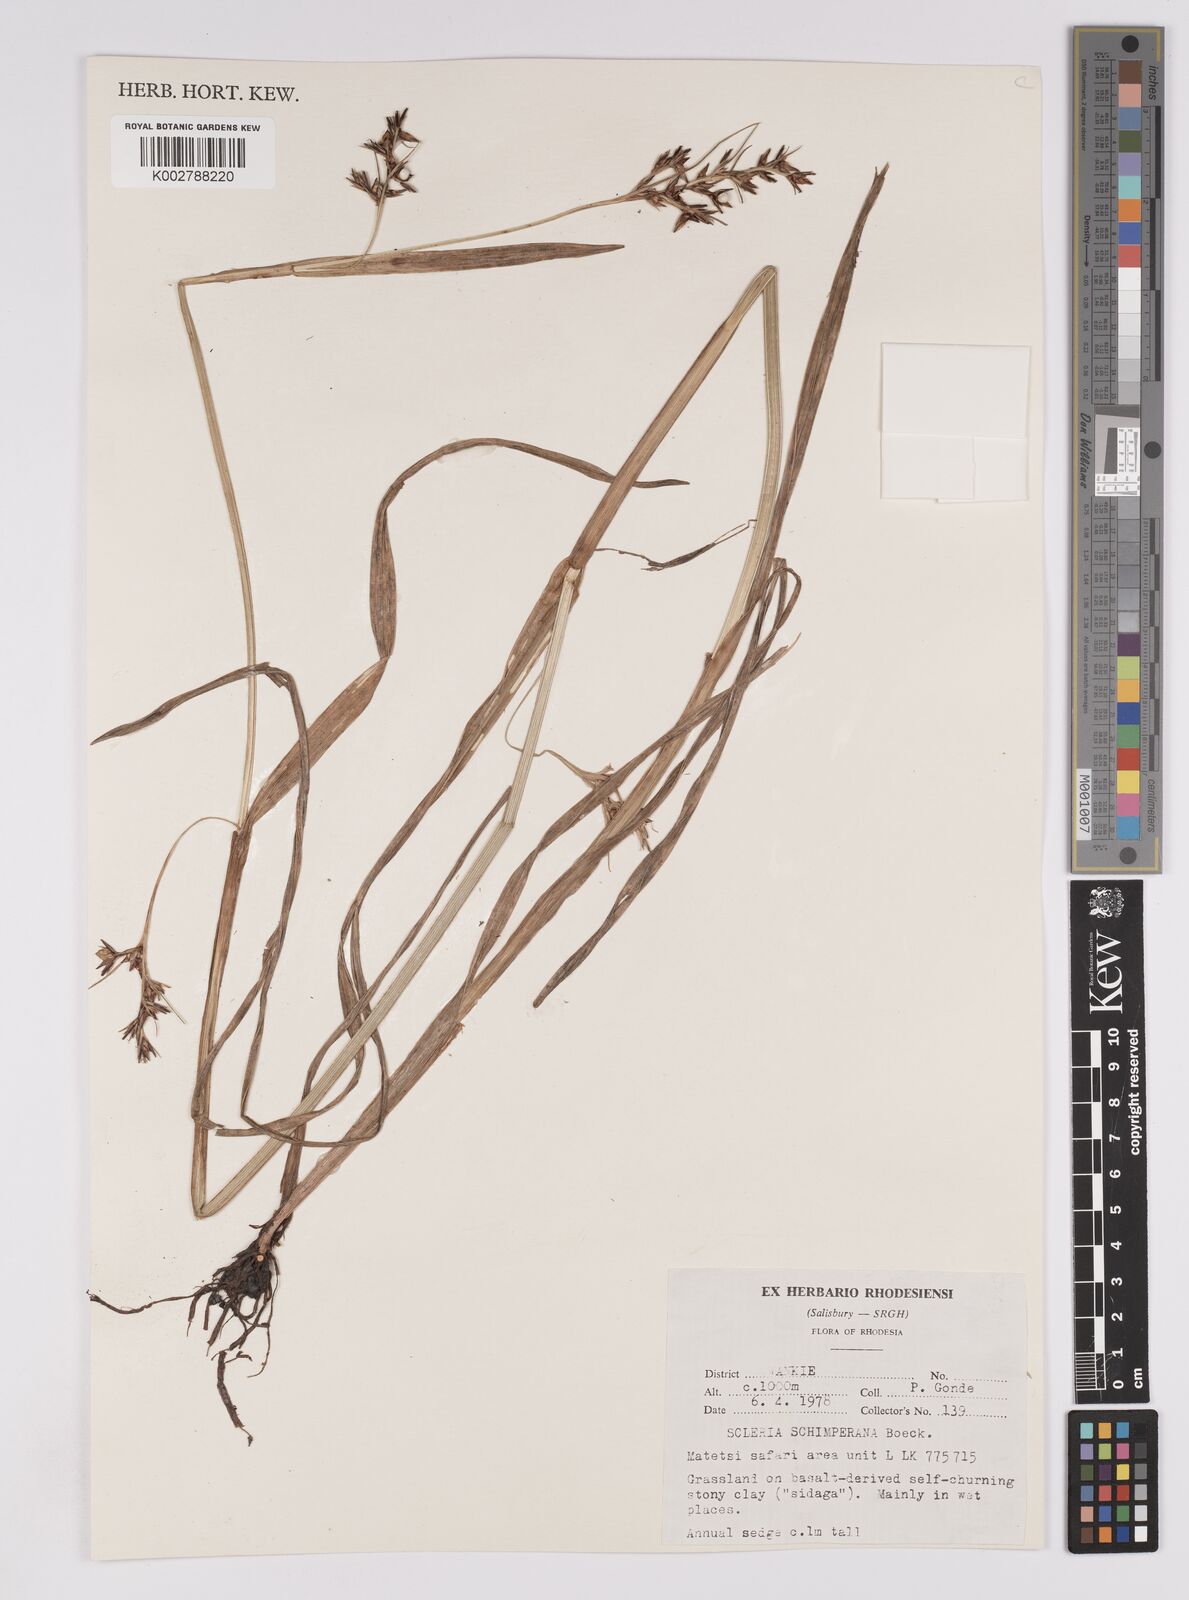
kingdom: Plantae
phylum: Tracheophyta
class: Liliopsida
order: Poales
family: Cyperaceae
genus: Scleria
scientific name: Scleria schimperiana
